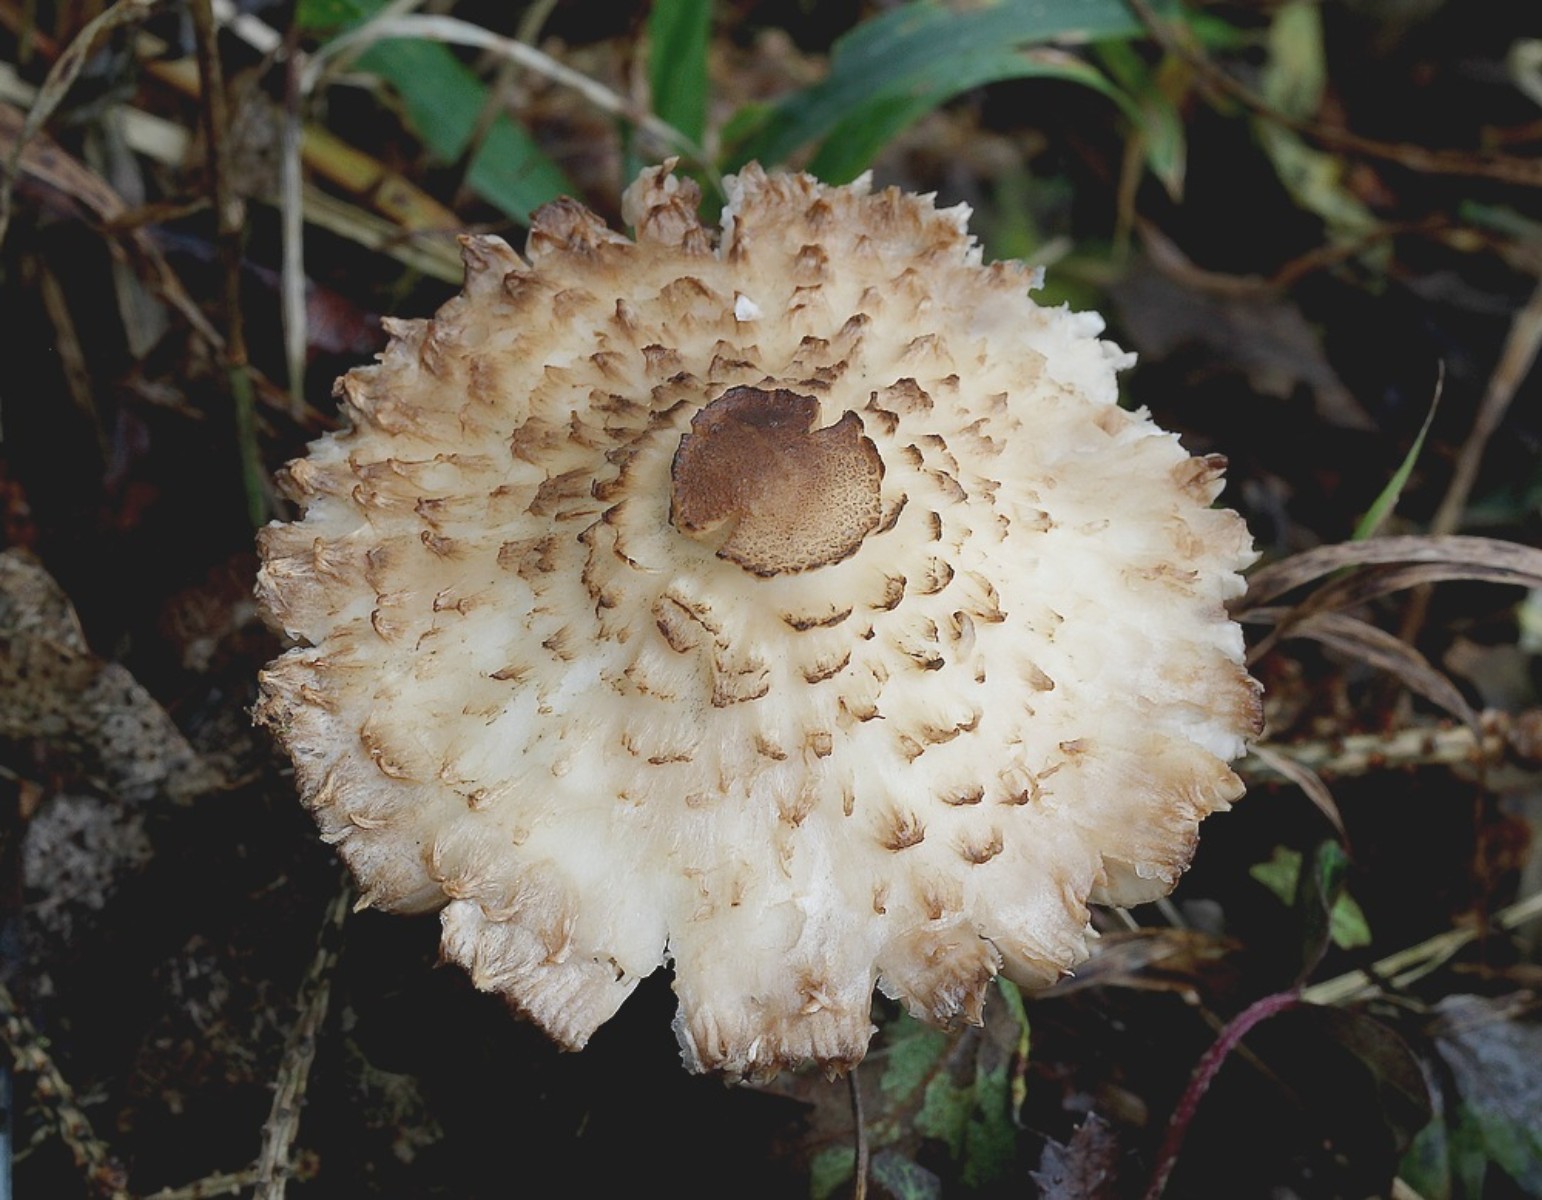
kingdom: Fungi
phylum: Basidiomycota
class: Agaricomycetes
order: Agaricales
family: Agaricaceae
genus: Leucoagaricus
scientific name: Leucoagaricus nympharum
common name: gran-silkehat
